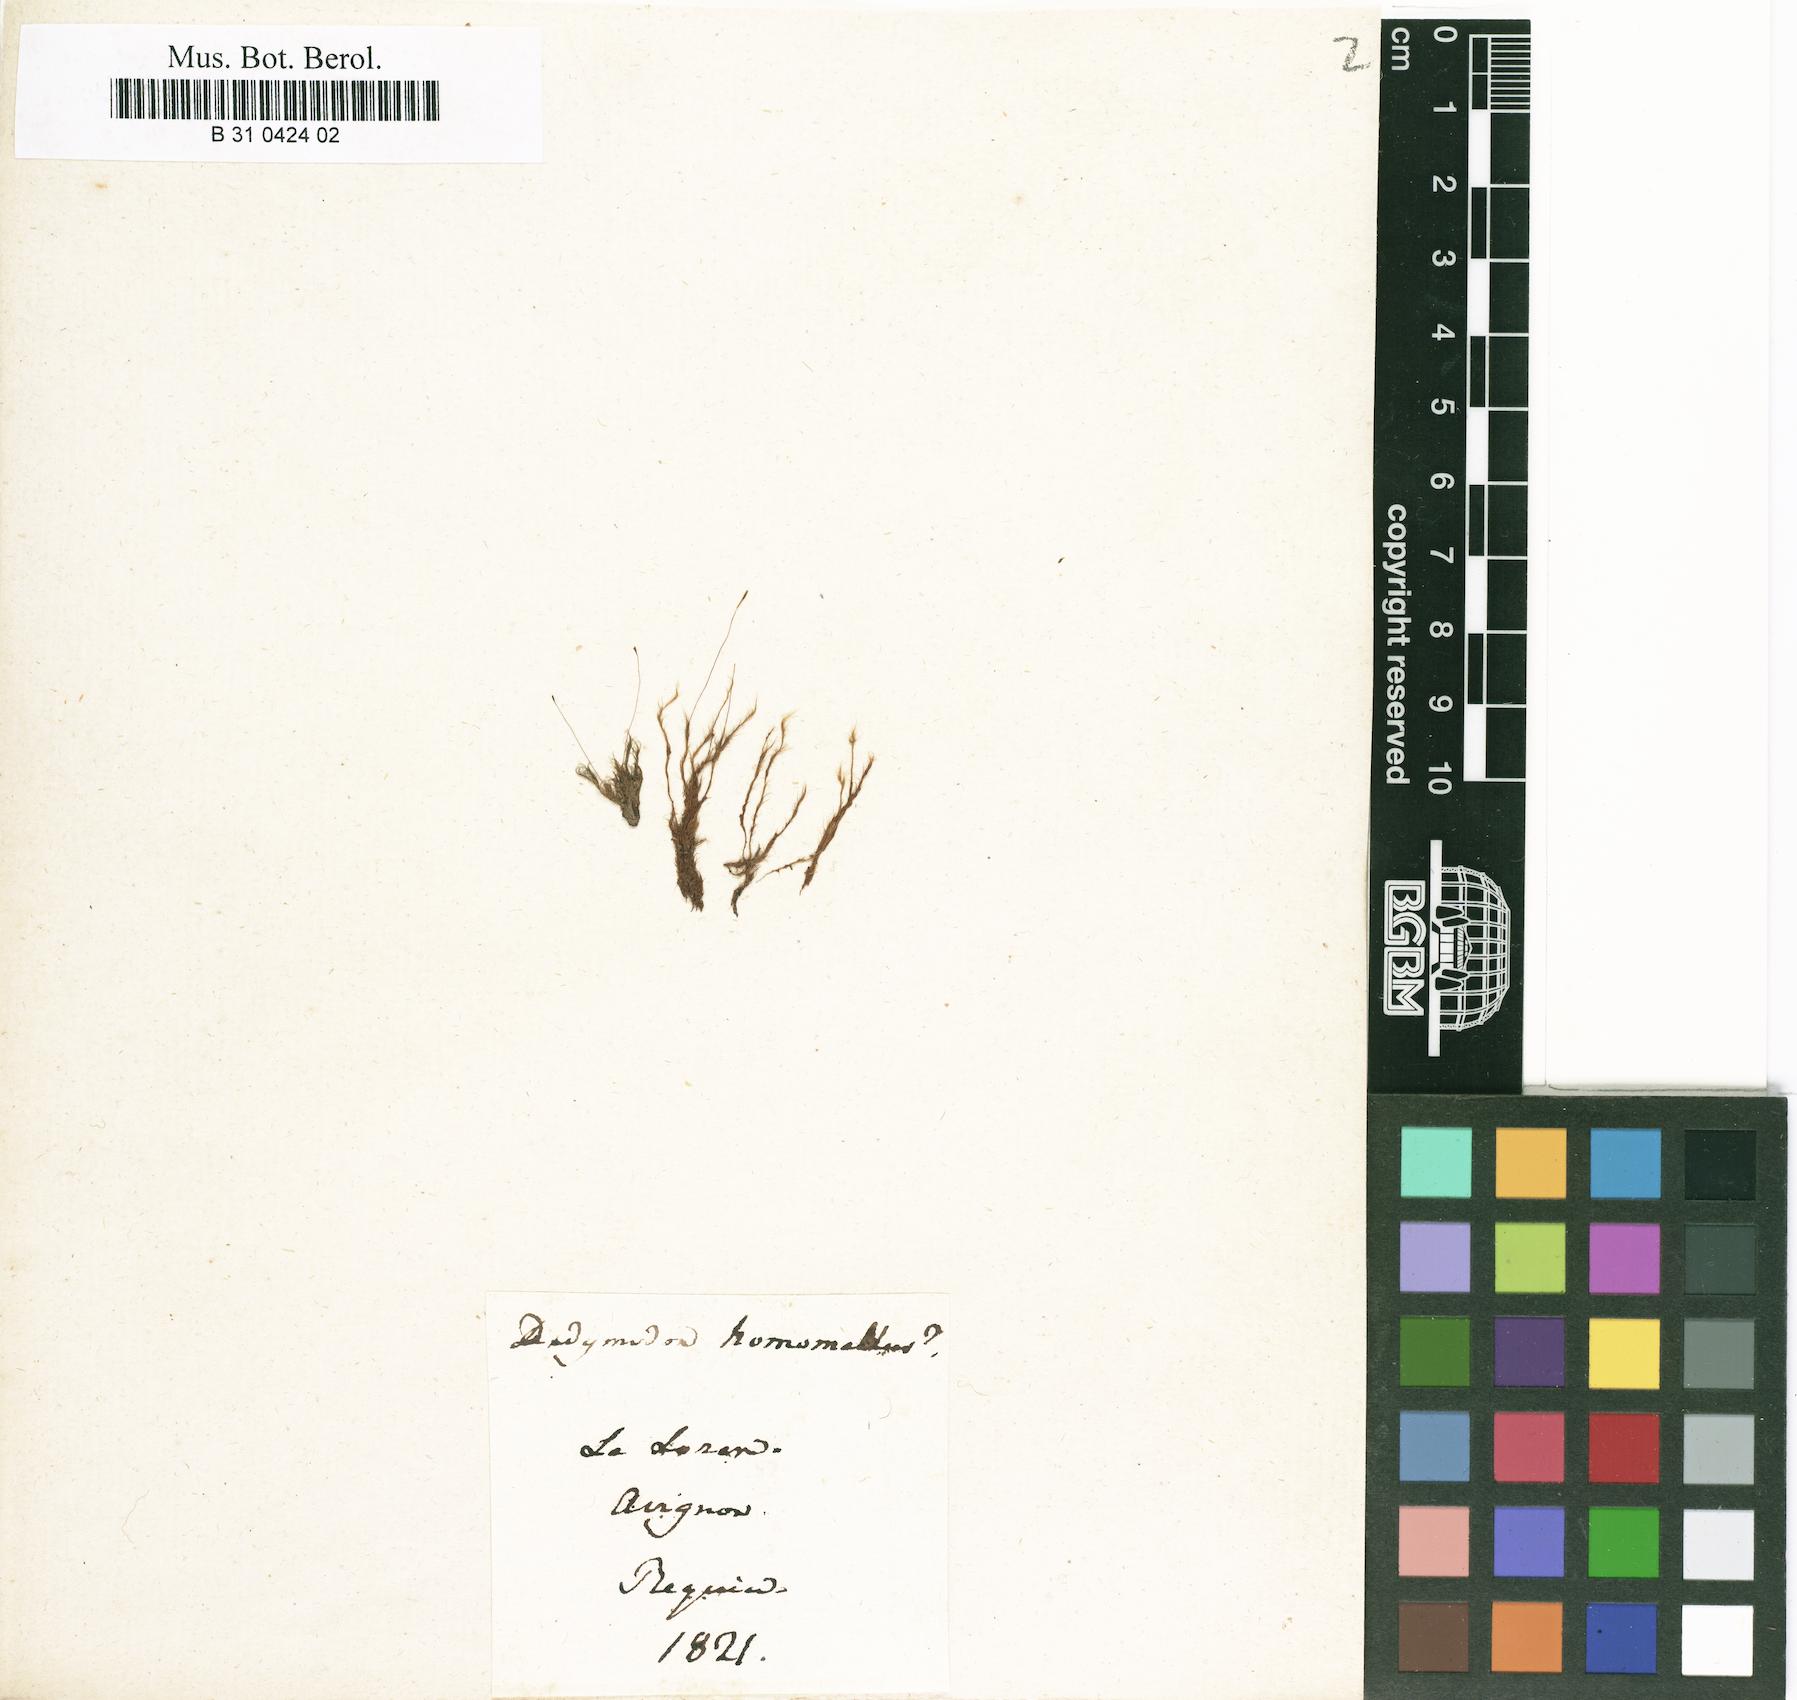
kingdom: Plantae
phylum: Bryophyta
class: Bryopsida
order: Dicranales
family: Ditrichaceae
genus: Ditrichum
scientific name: Ditrichum heteromallum
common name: Curve-leaved ditrichum
